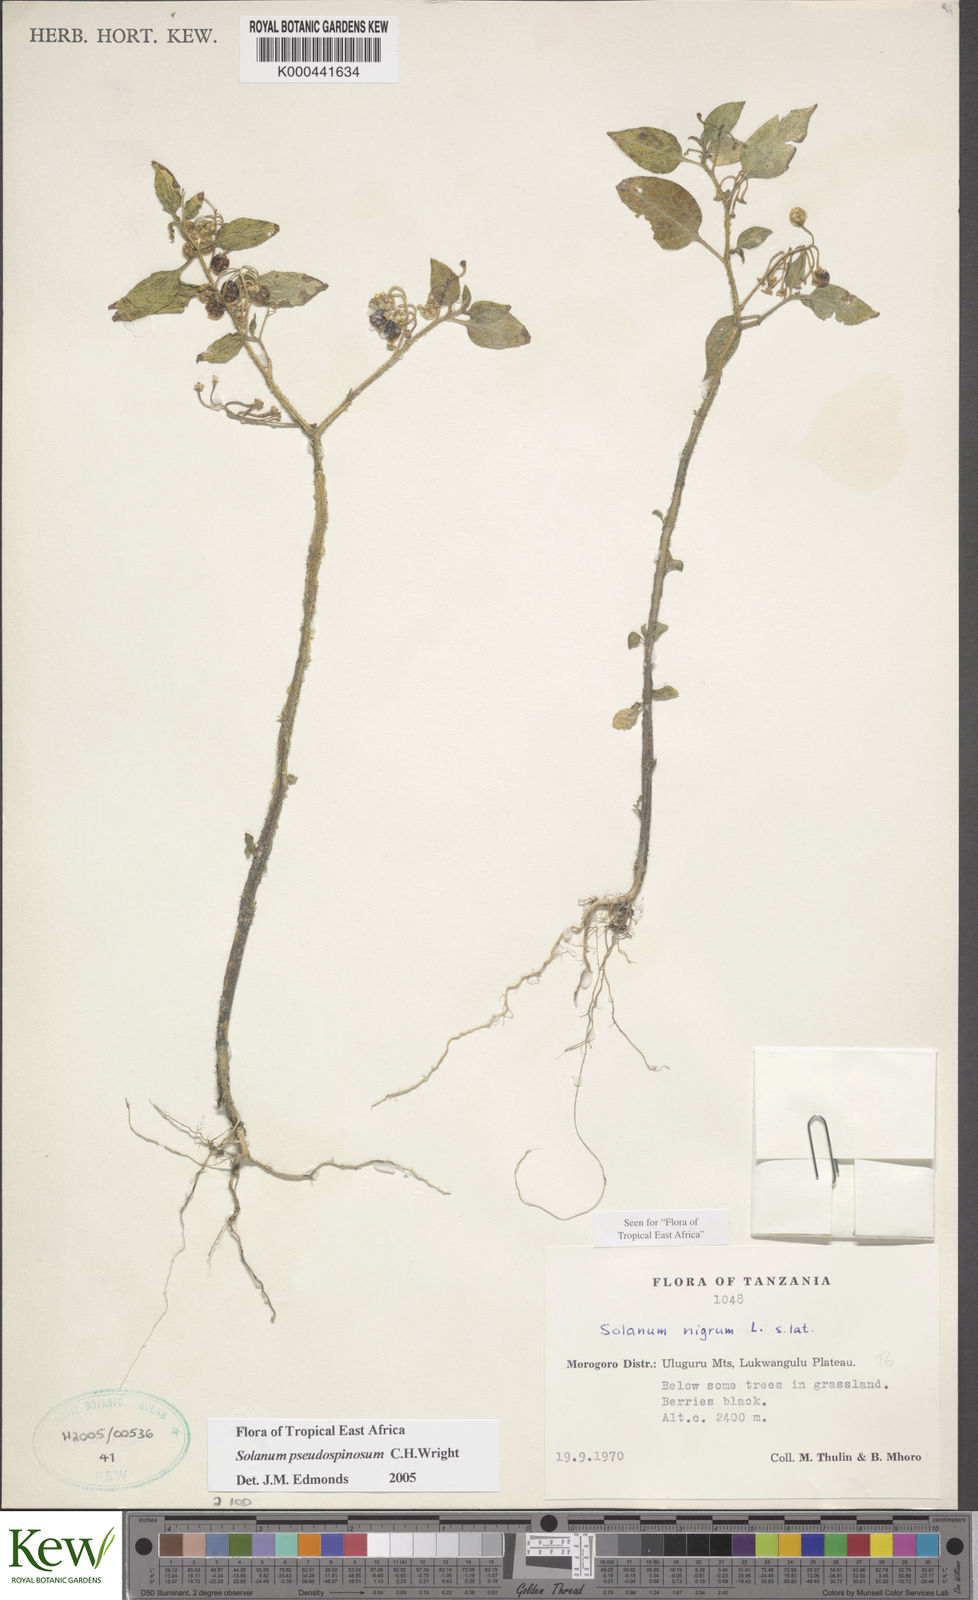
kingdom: Plantae
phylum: Tracheophyta
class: Magnoliopsida
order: Solanales
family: Solanaceae
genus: Solanum
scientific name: Solanum pseudospinosum
